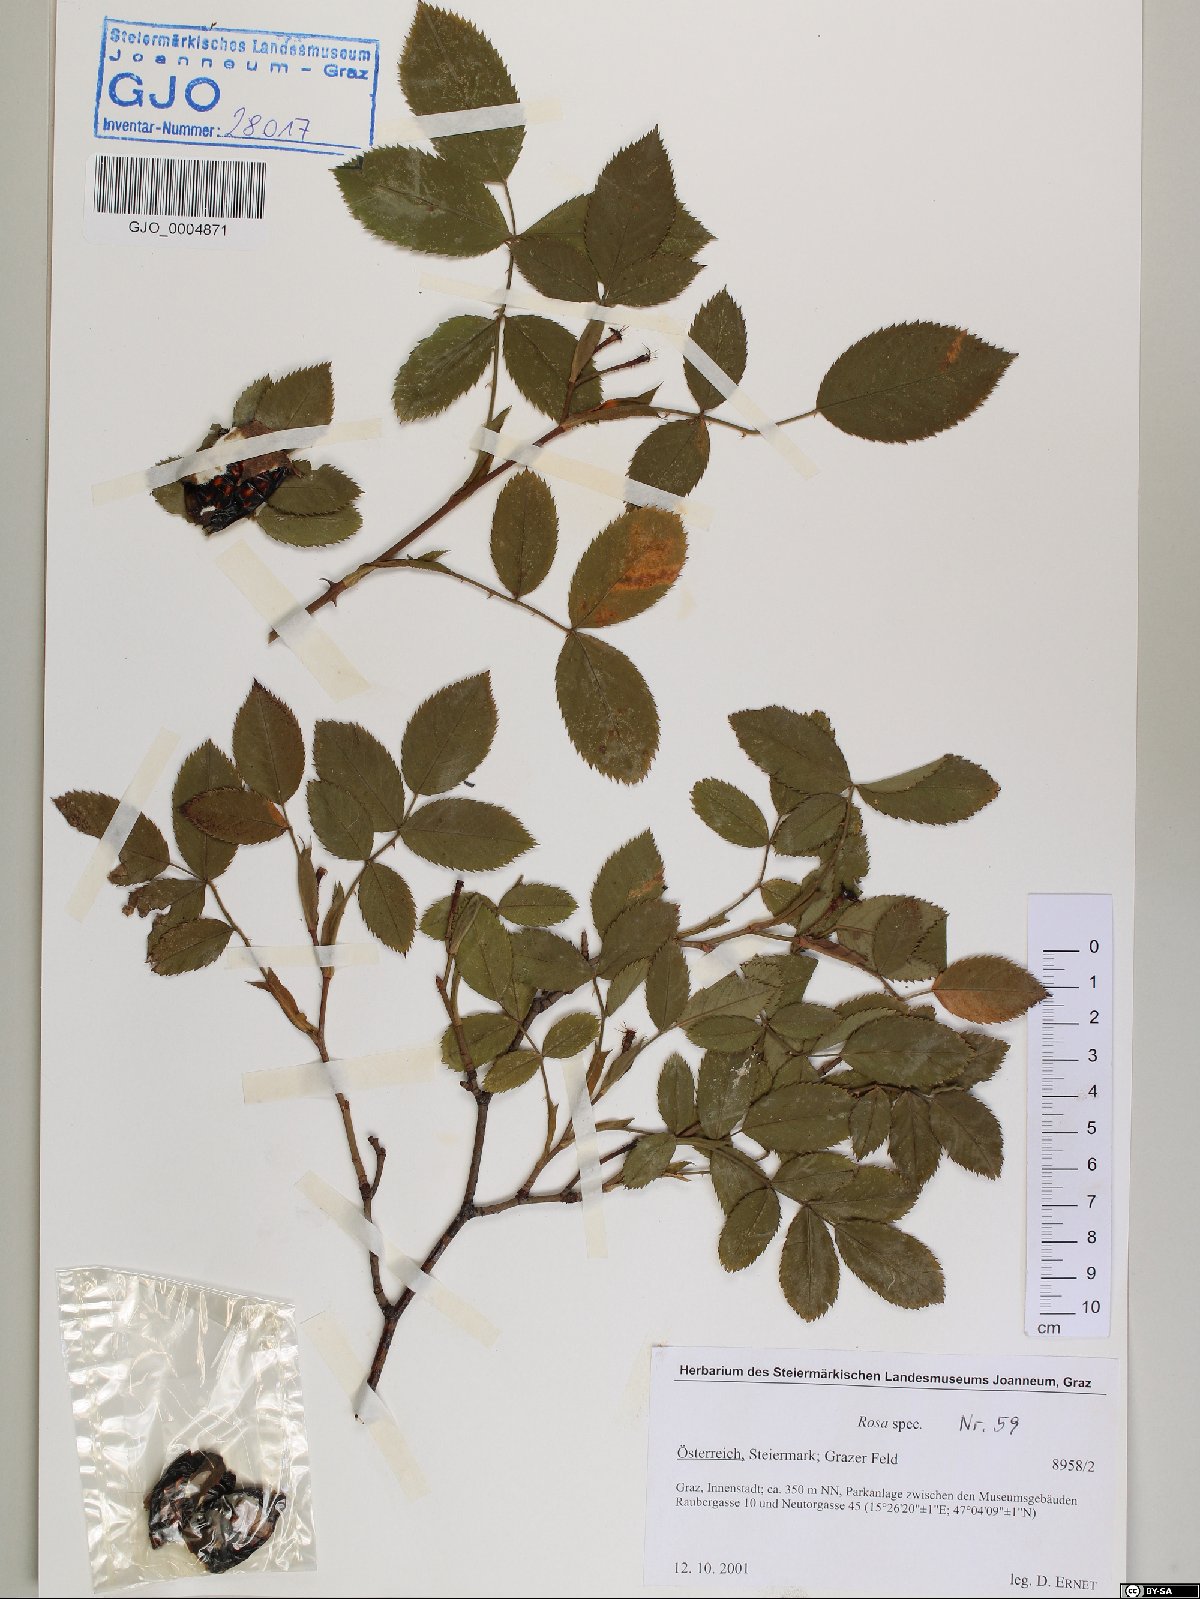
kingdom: Plantae
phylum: Tracheophyta
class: Magnoliopsida
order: Rosales
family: Rosaceae
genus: Rosa
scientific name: Rosa
